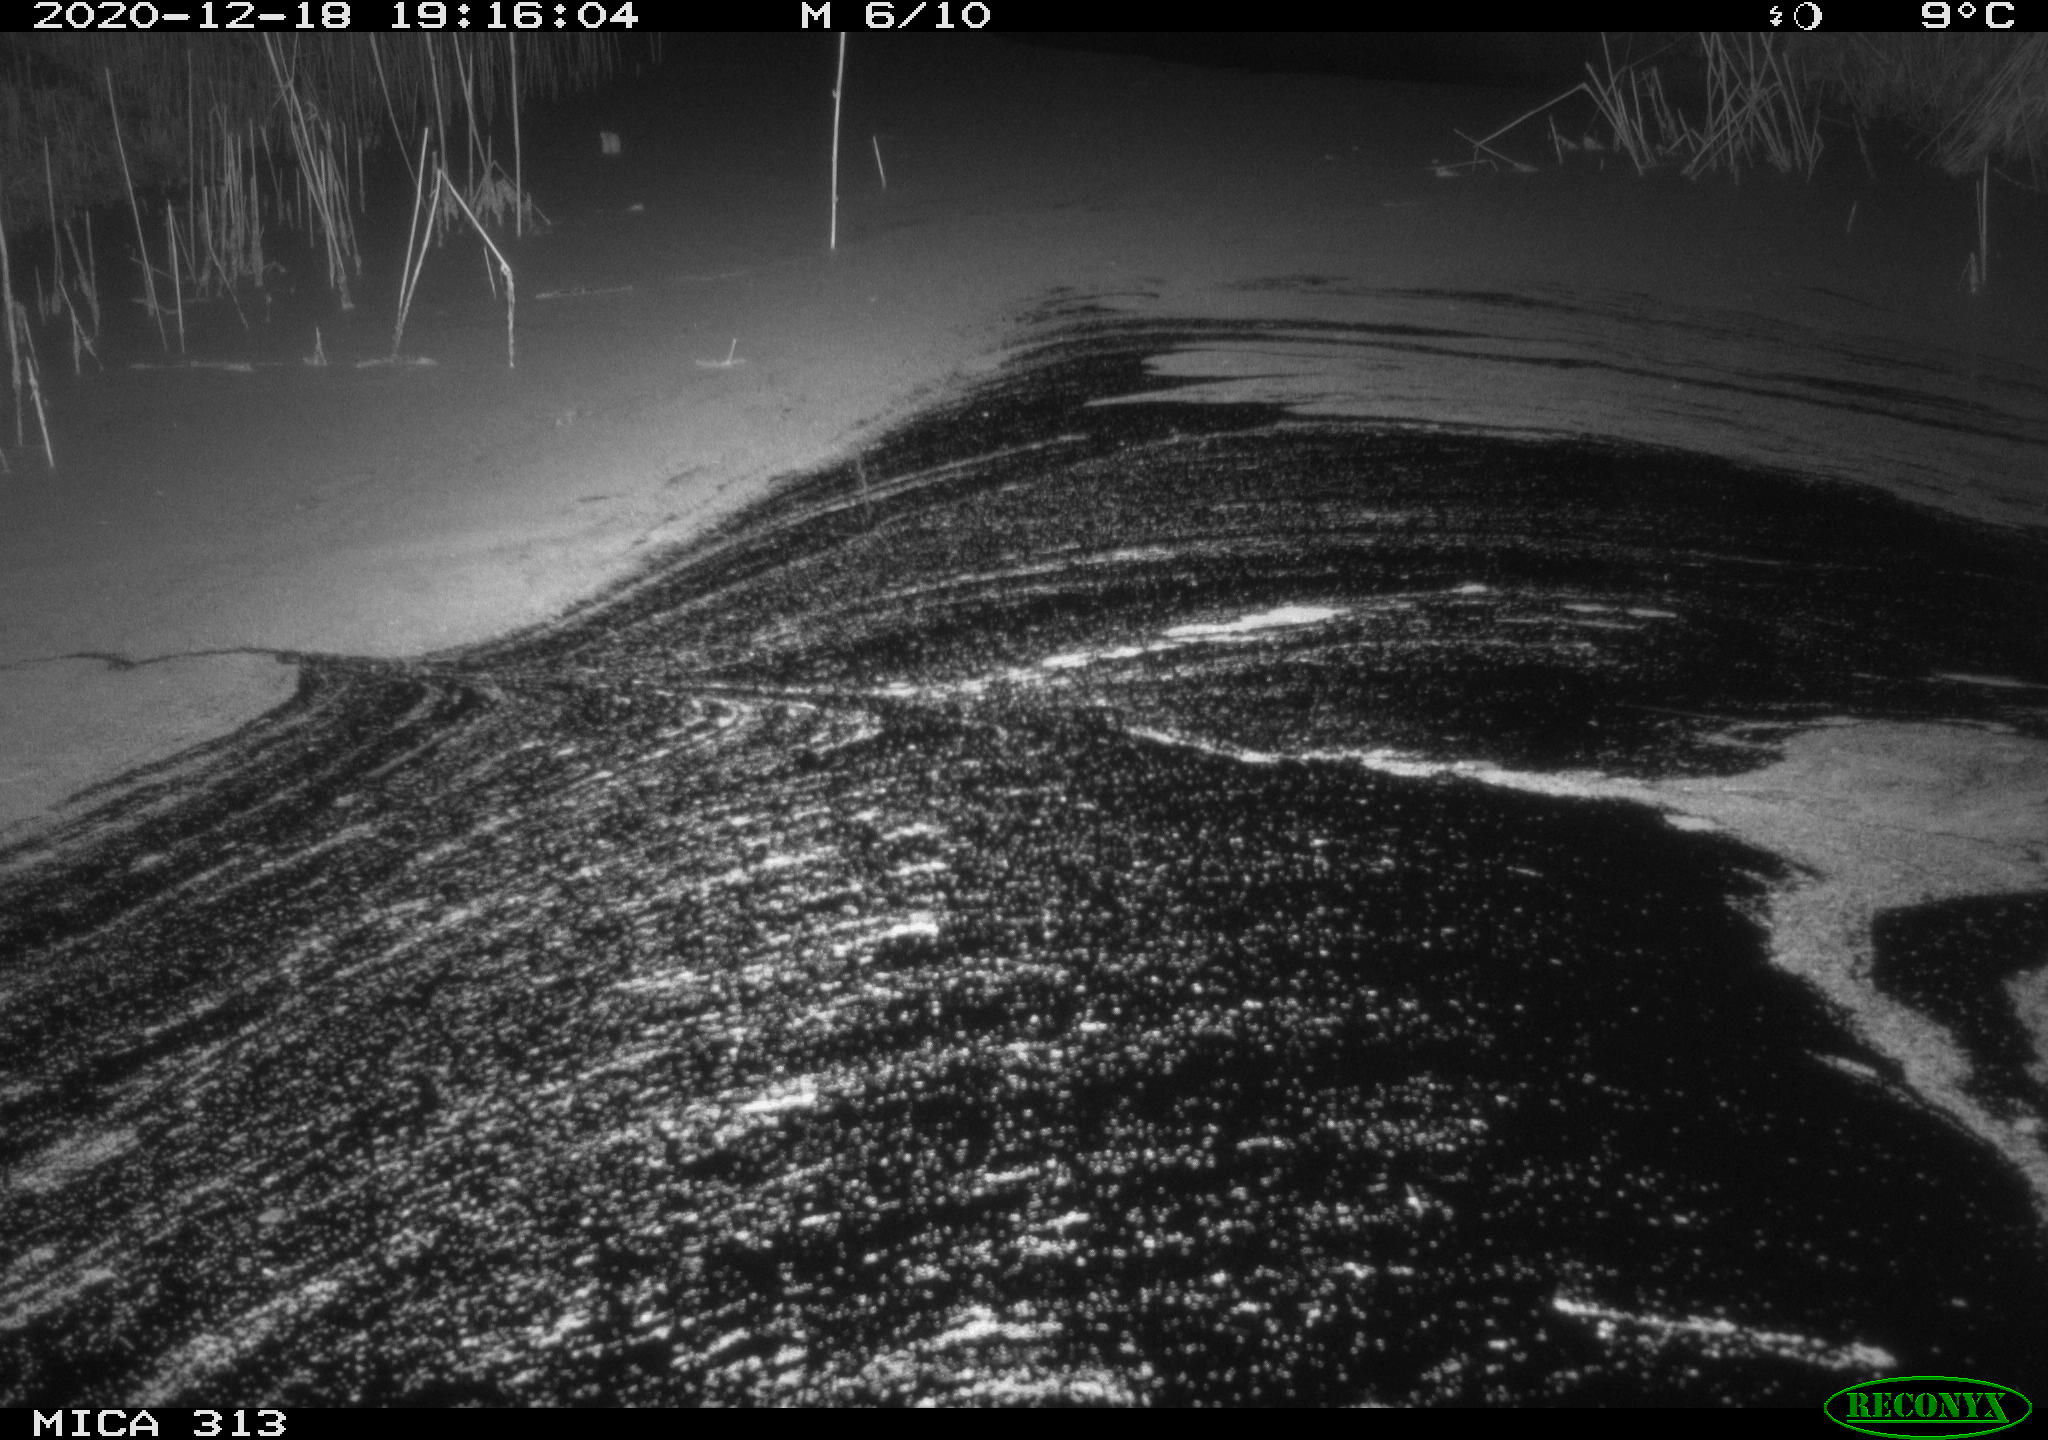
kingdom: Animalia
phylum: Chordata
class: Mammalia
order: Rodentia
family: Muridae
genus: Rattus
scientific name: Rattus norvegicus
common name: Brown rat
